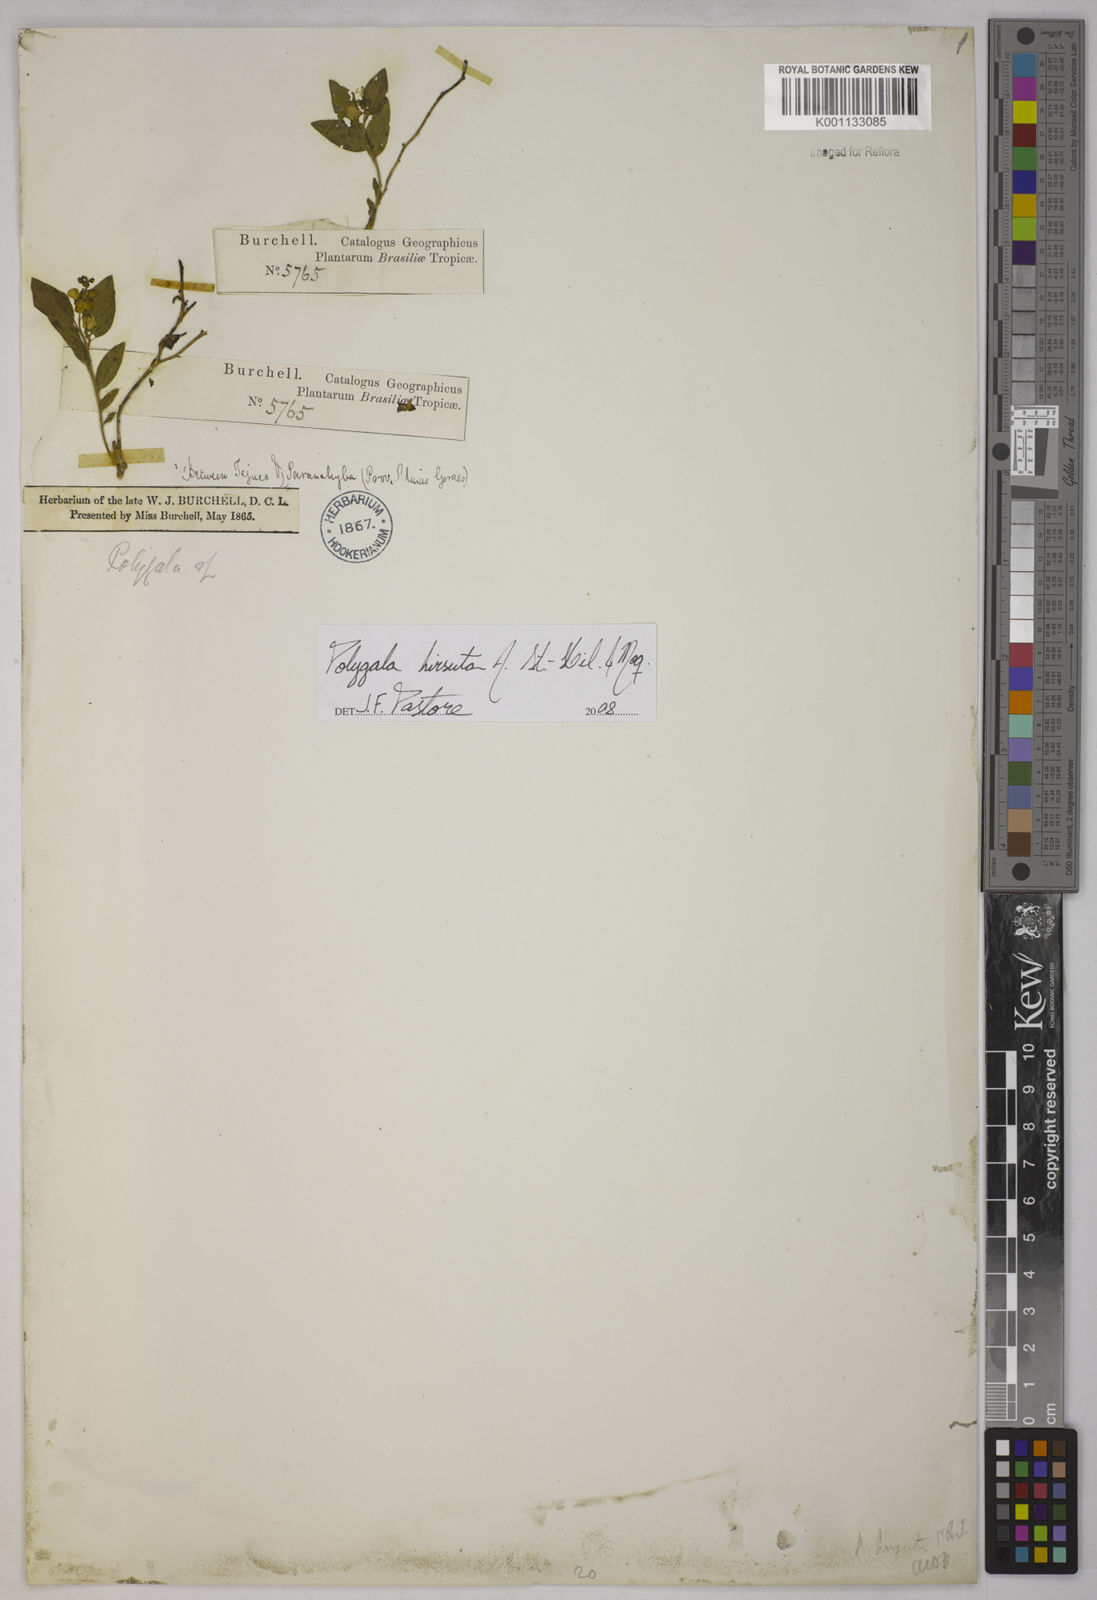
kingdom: Plantae
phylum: Tracheophyta
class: Magnoliopsida
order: Fabales
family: Polygalaceae
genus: Asemeia
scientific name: Asemeia hirsuta
